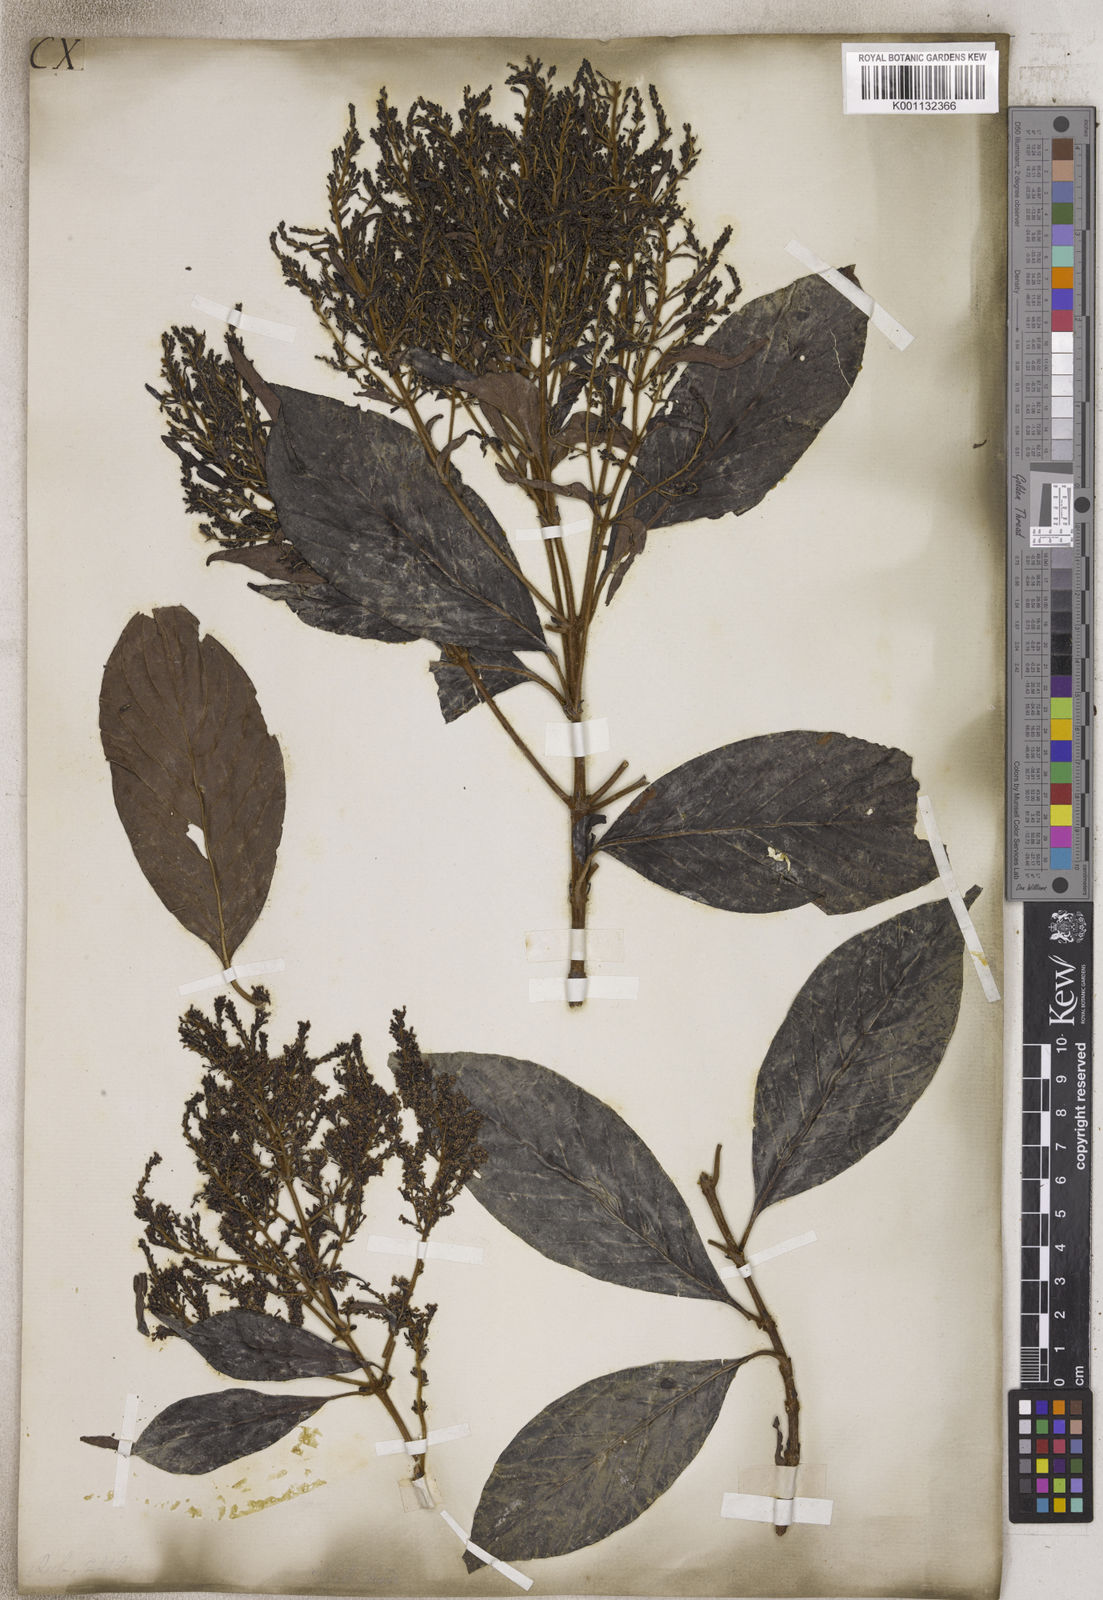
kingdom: Plantae
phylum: Tracheophyta
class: Magnoliopsida
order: Gentianales
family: Rubiaceae
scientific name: Rubiaceae
